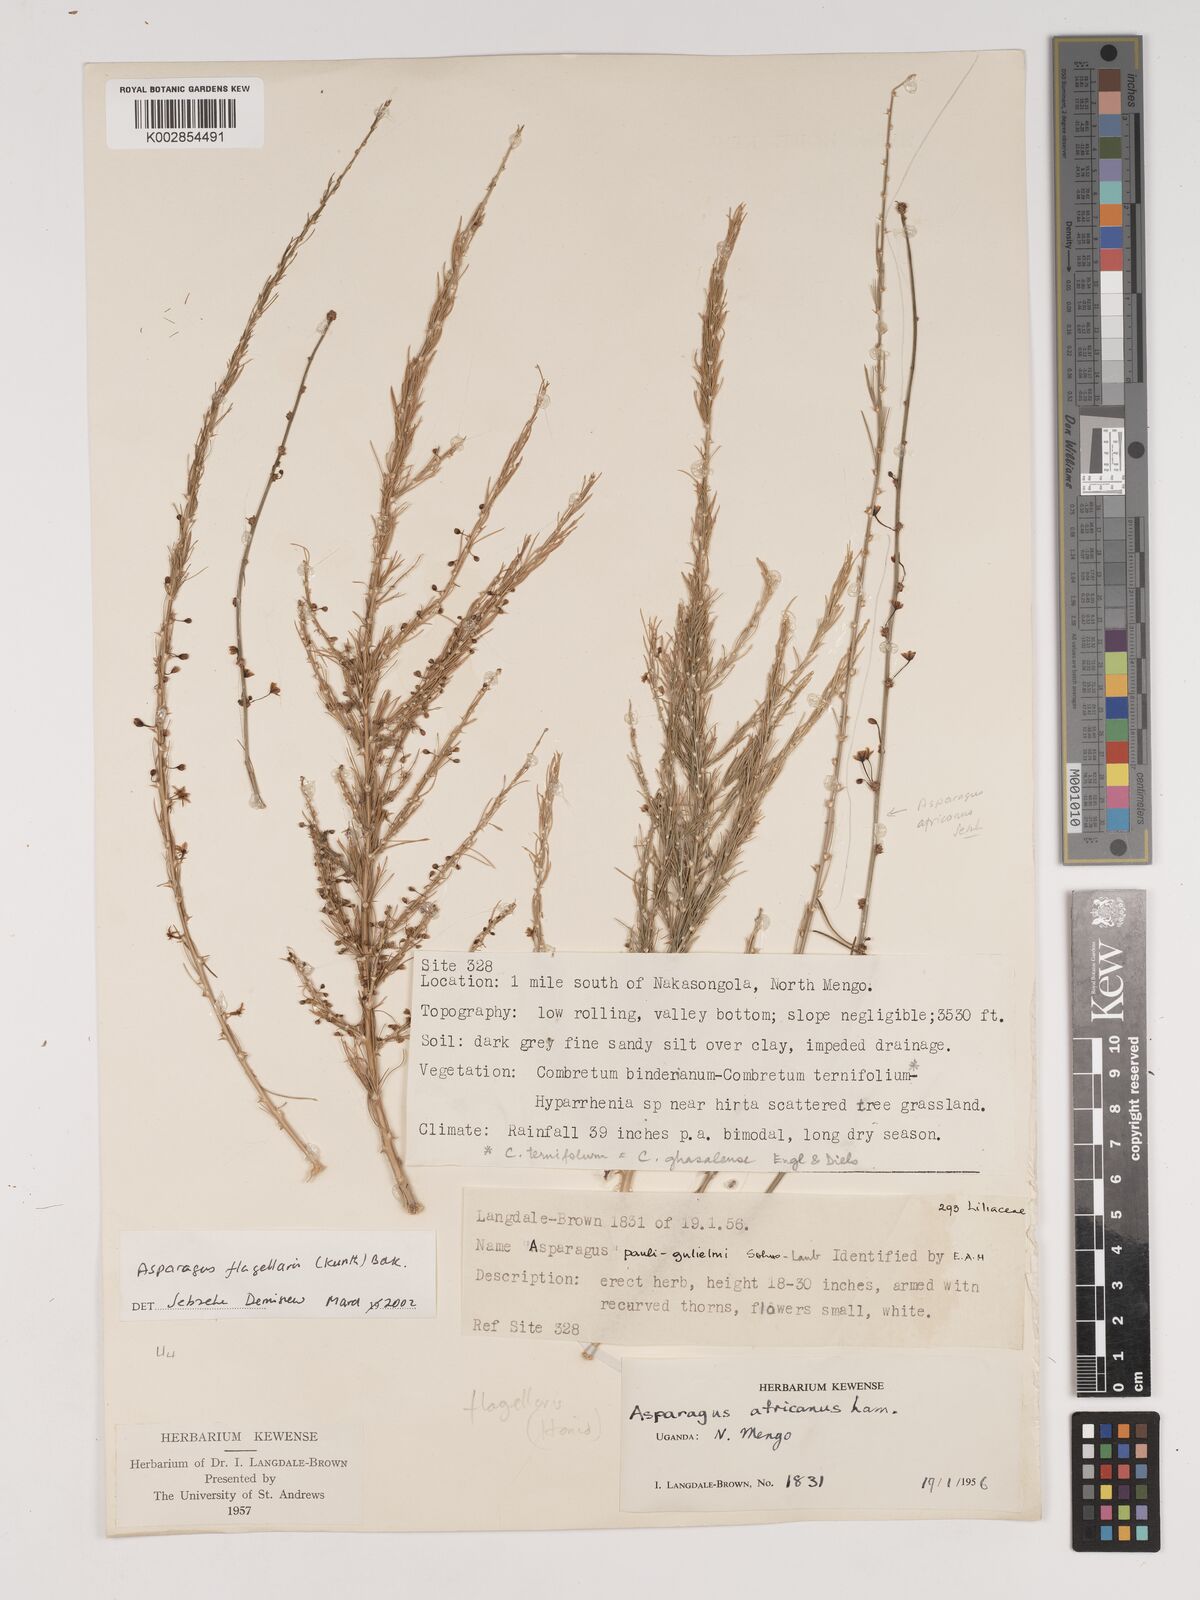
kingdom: Plantae
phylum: Tracheophyta
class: Liliopsida
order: Asparagales
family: Asparagaceae
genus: Asparagus
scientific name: Asparagus flagellaris
